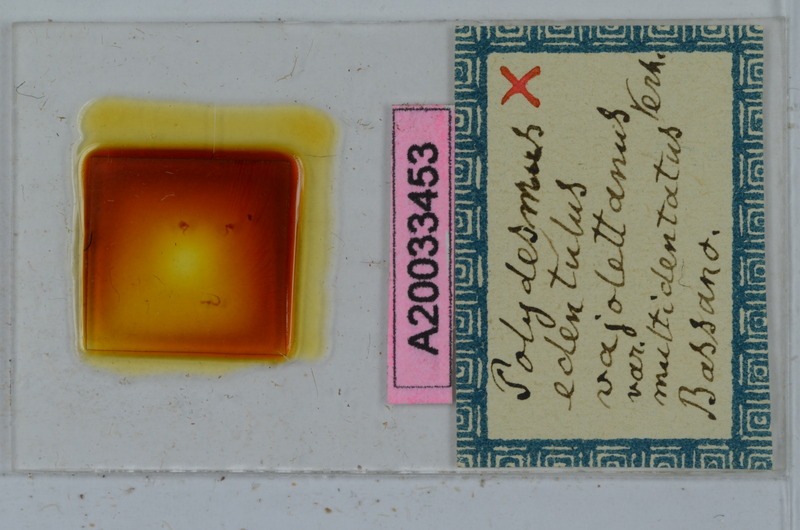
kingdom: Animalia
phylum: Arthropoda
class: Diplopoda
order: Polydesmida
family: Polydesmidae
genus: Polydesmus
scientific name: Polydesmus edentulus
